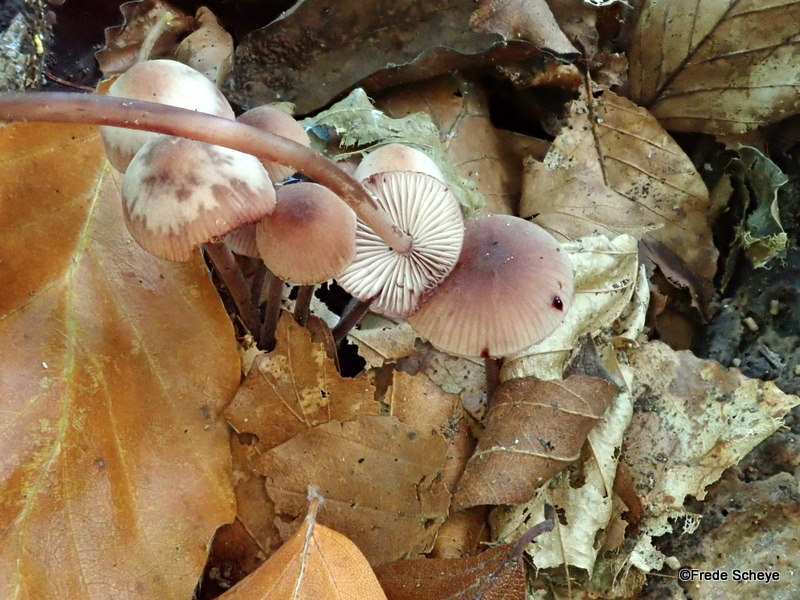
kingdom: Fungi
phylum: Basidiomycota
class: Agaricomycetes
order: Agaricales
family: Mycenaceae
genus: Mycena
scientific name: Mycena haematopus
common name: blødende huesvamp
